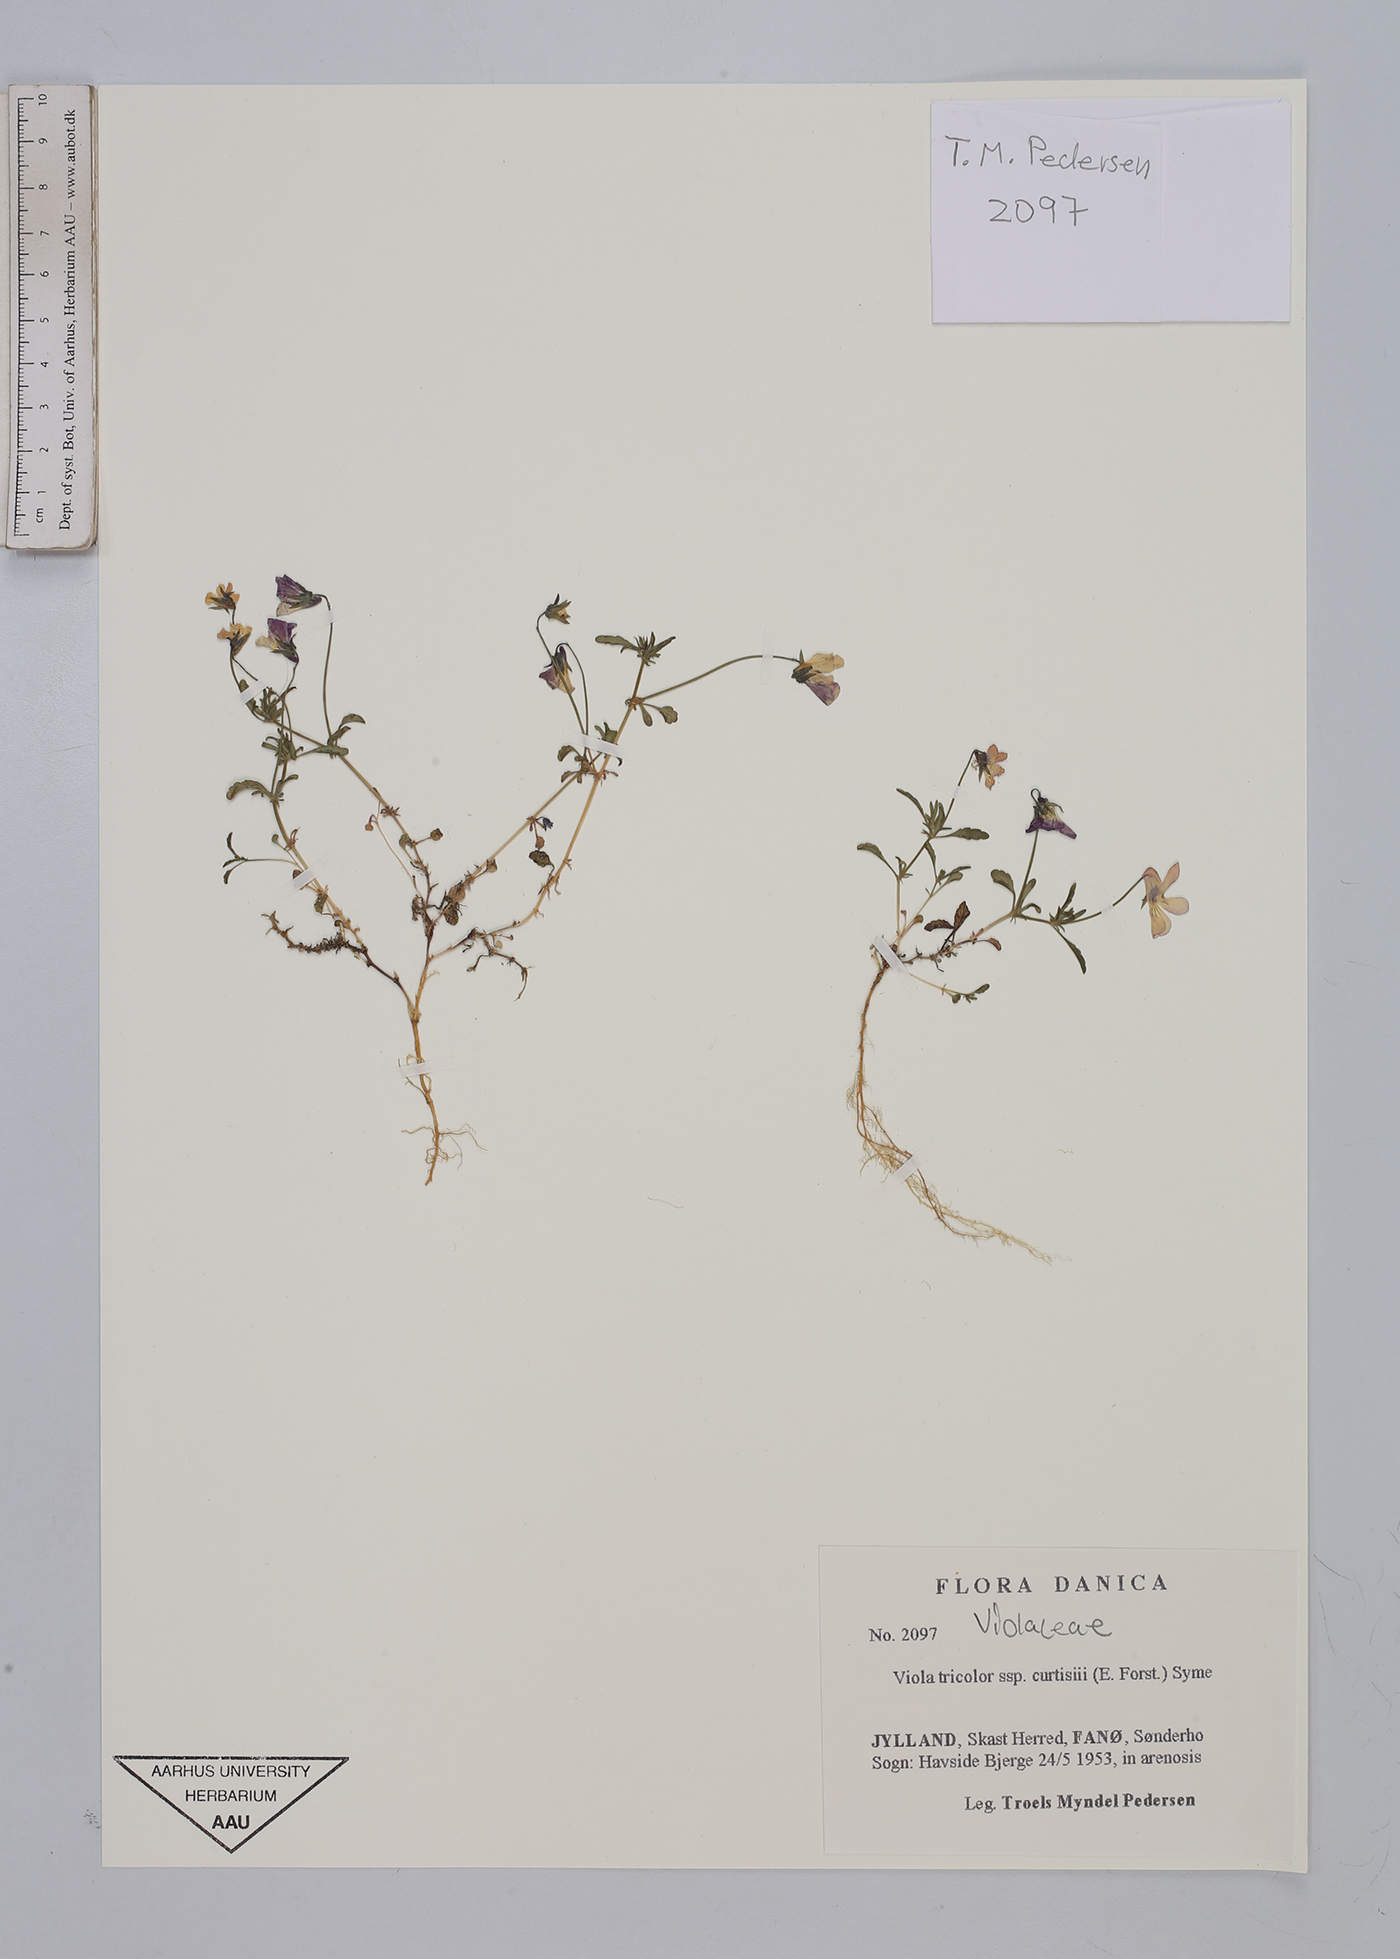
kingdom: Plantae
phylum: Tracheophyta
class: Magnoliopsida
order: Malpighiales
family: Violaceae
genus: Viola
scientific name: Viola tricolor
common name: Pansy
